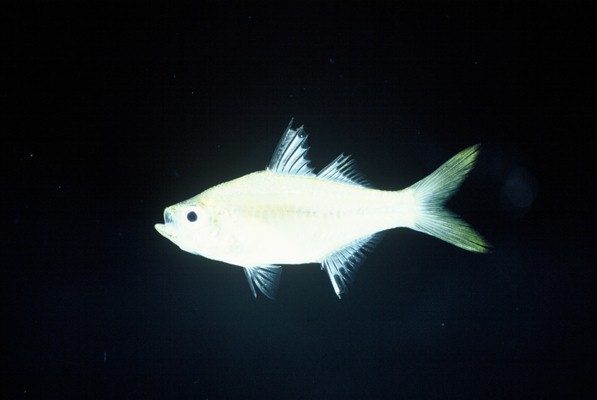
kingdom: Animalia
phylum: Chordata
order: Perciformes
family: Ambassidae
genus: Ambassis
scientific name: Ambassis gymnocephalus
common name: Bald glassy
